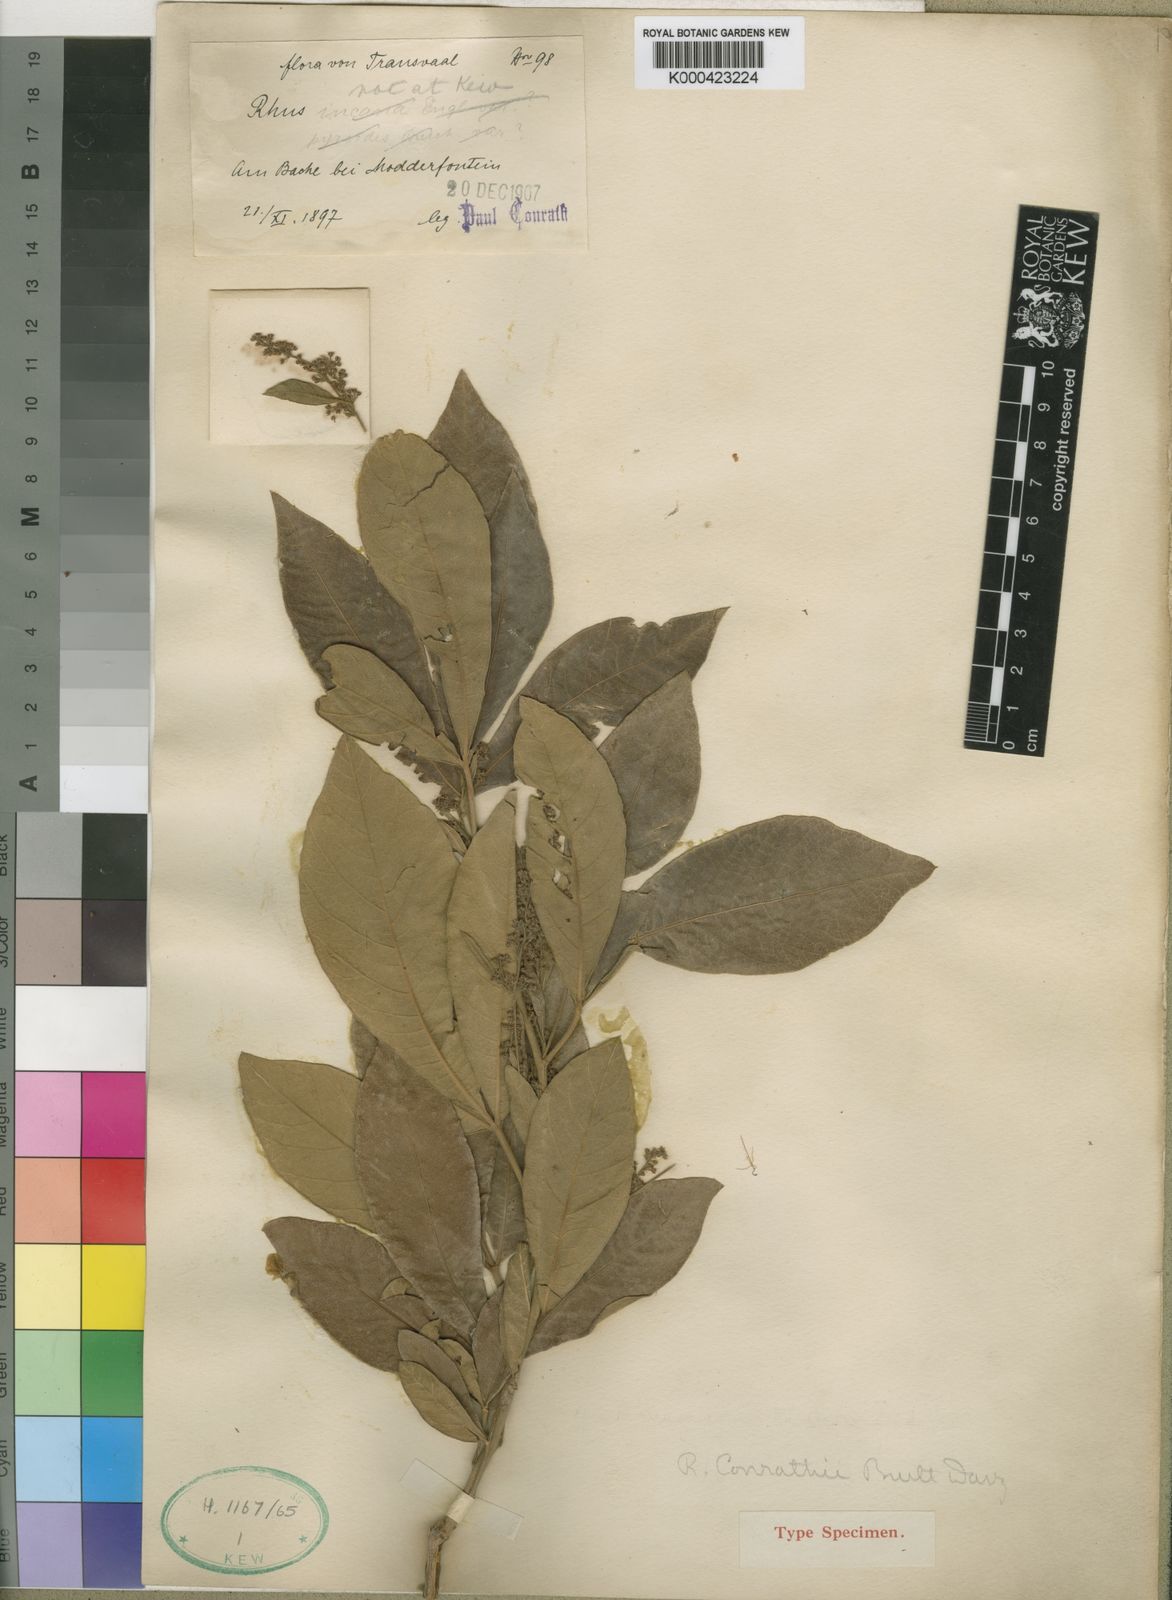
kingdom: Plantae
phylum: Tracheophyta
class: Magnoliopsida
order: Sapindales
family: Anacardiaceae
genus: Searsia
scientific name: Searsia pyroides
